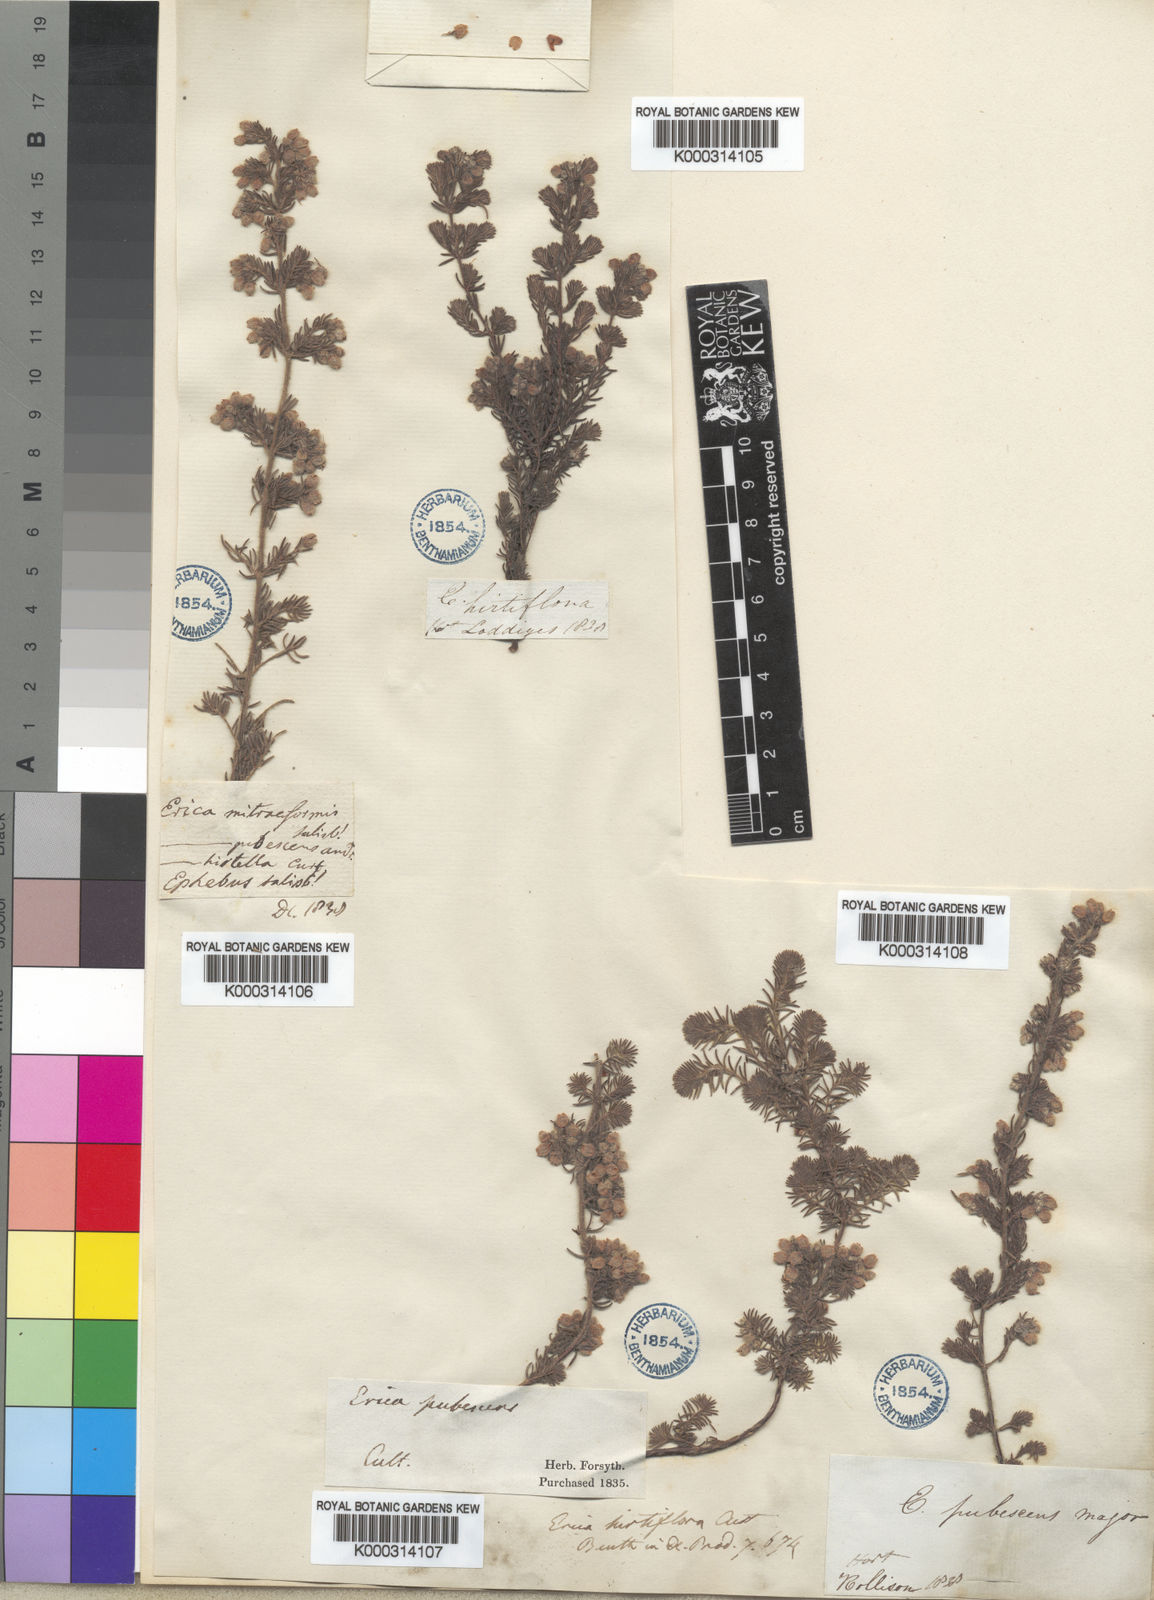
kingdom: Plantae
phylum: Tracheophyta
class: Magnoliopsida
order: Ericales
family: Ericaceae
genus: Erica
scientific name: Erica hirtiflora
